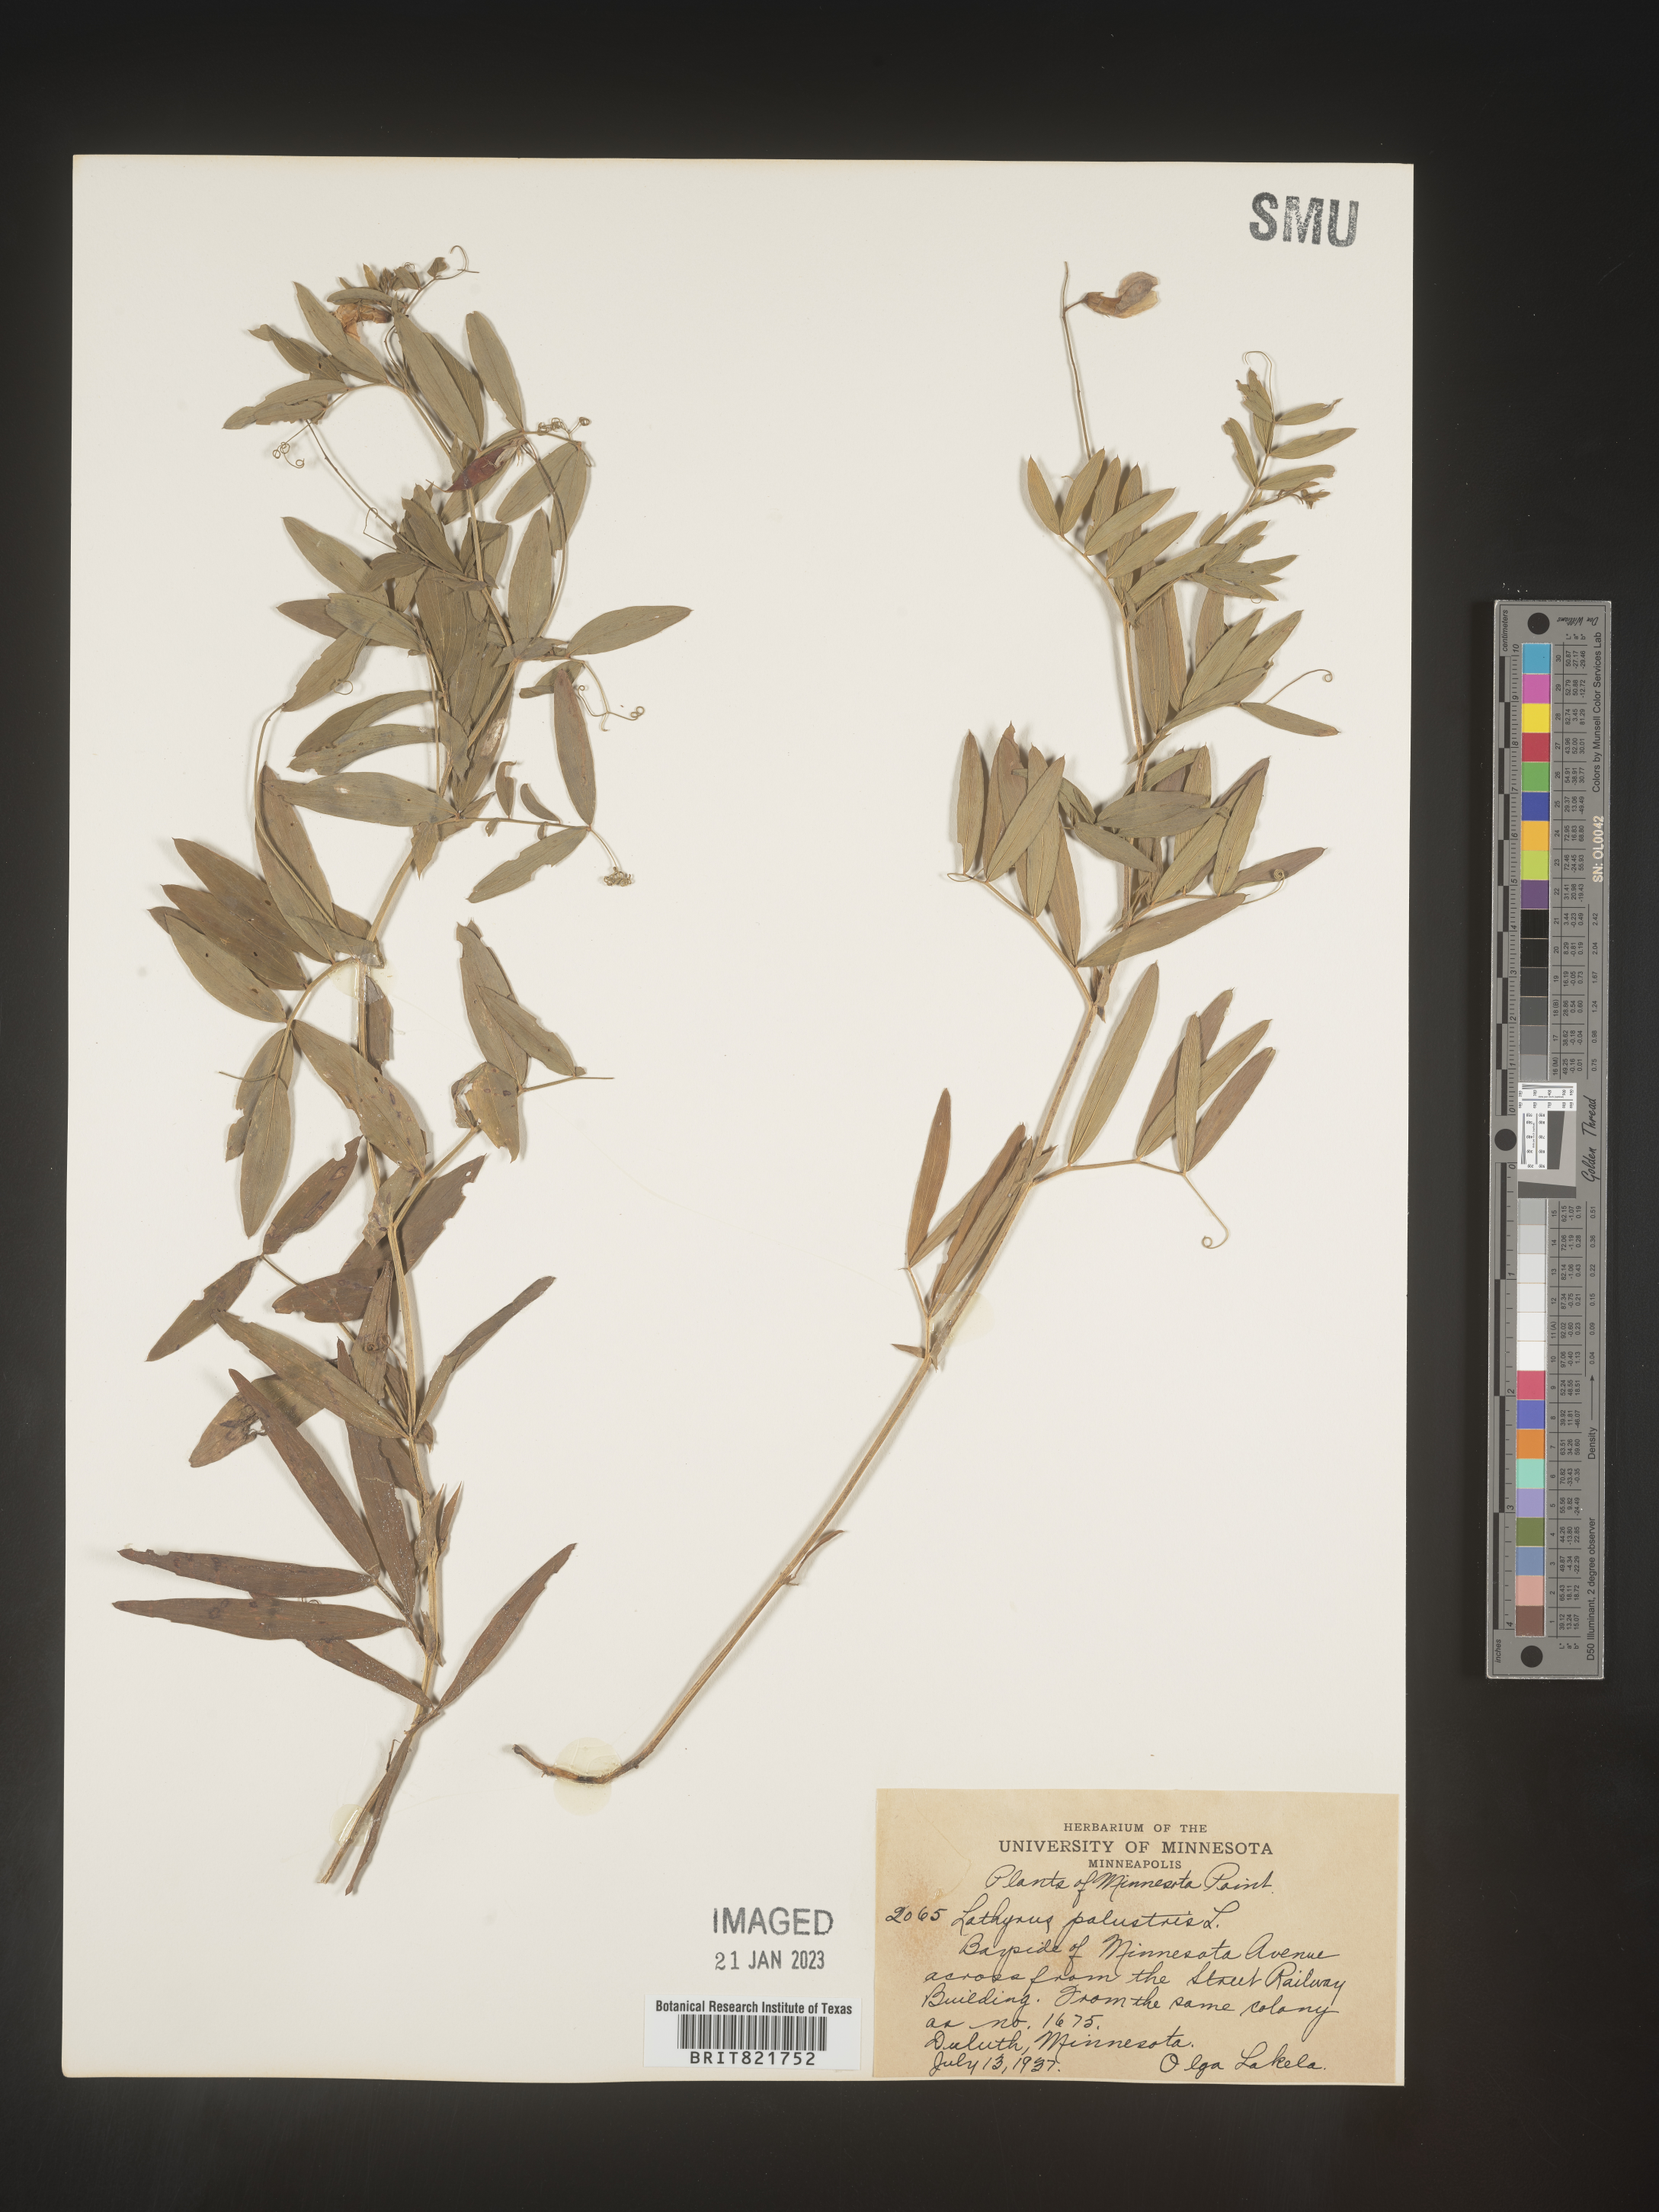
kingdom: Plantae
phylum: Tracheophyta
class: Magnoliopsida
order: Fabales
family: Fabaceae
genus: Lathyrus
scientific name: Lathyrus palustris
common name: Marsh pea
